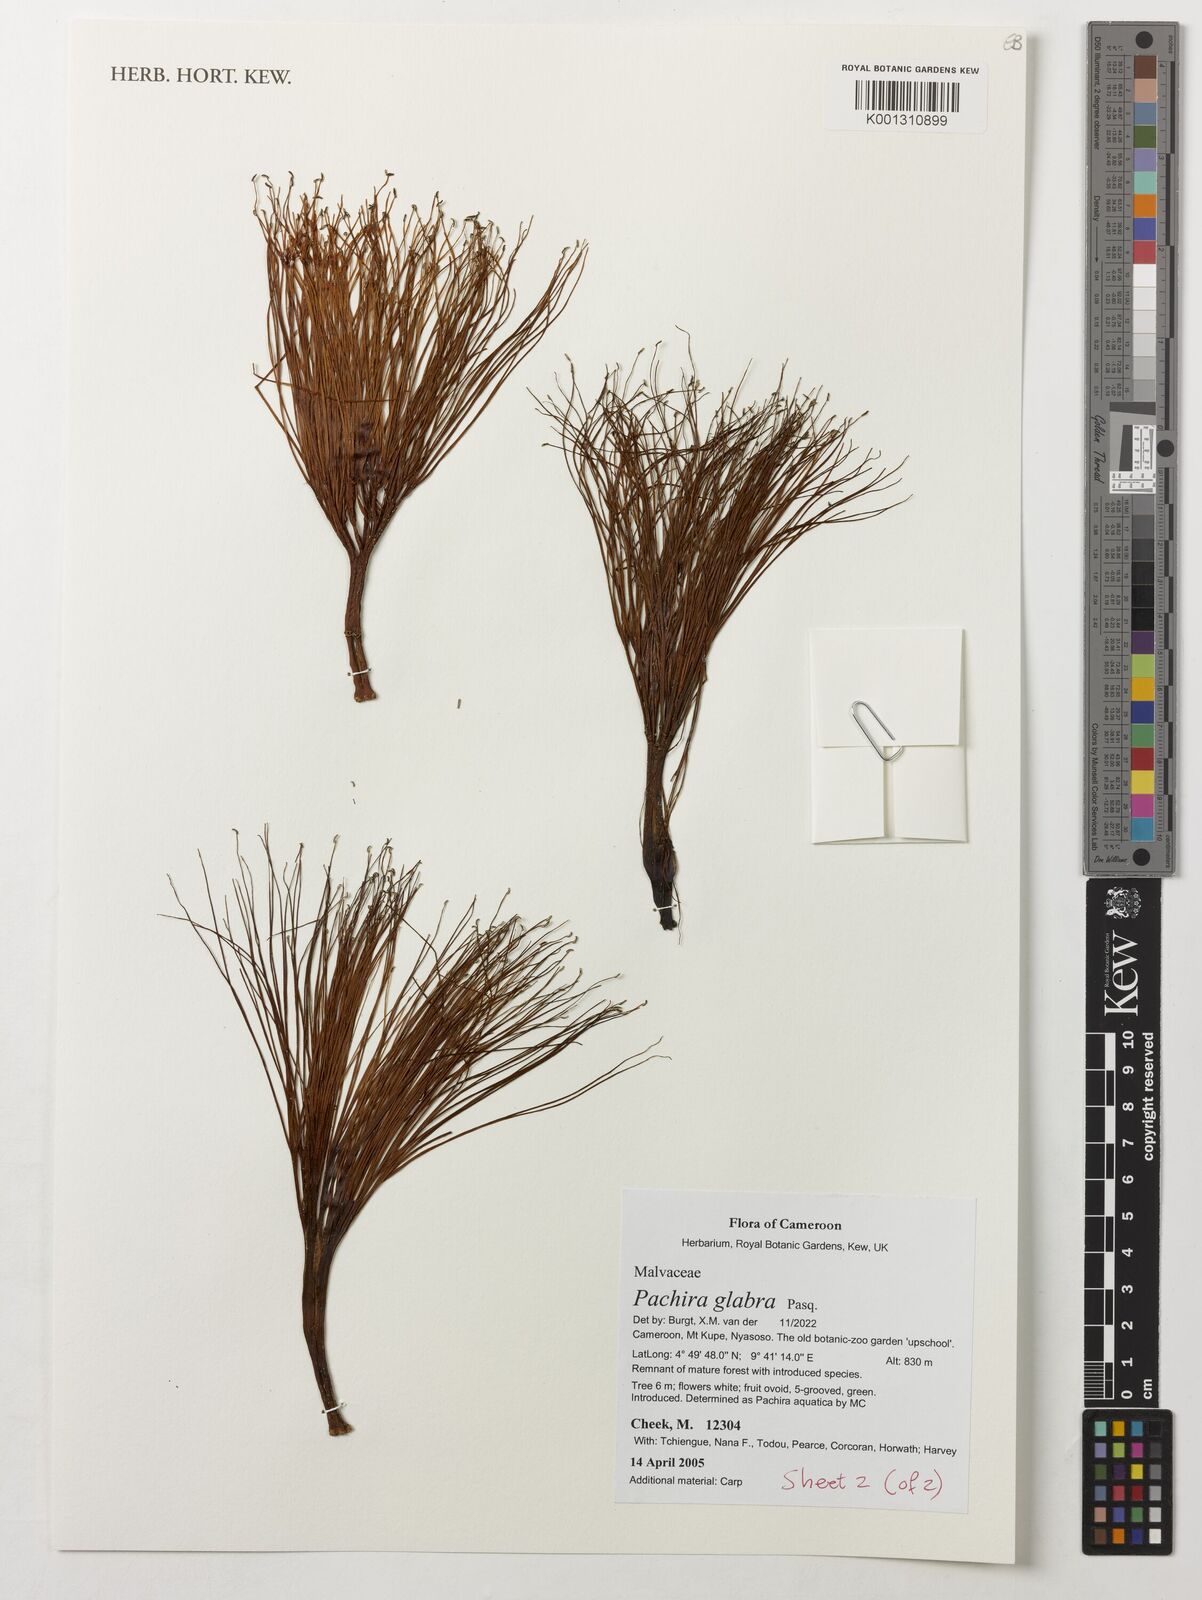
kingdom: Plantae
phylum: Tracheophyta
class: Magnoliopsida
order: Malvales
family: Malvaceae
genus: Pachira
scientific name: Pachira glabra
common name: Moneytree
